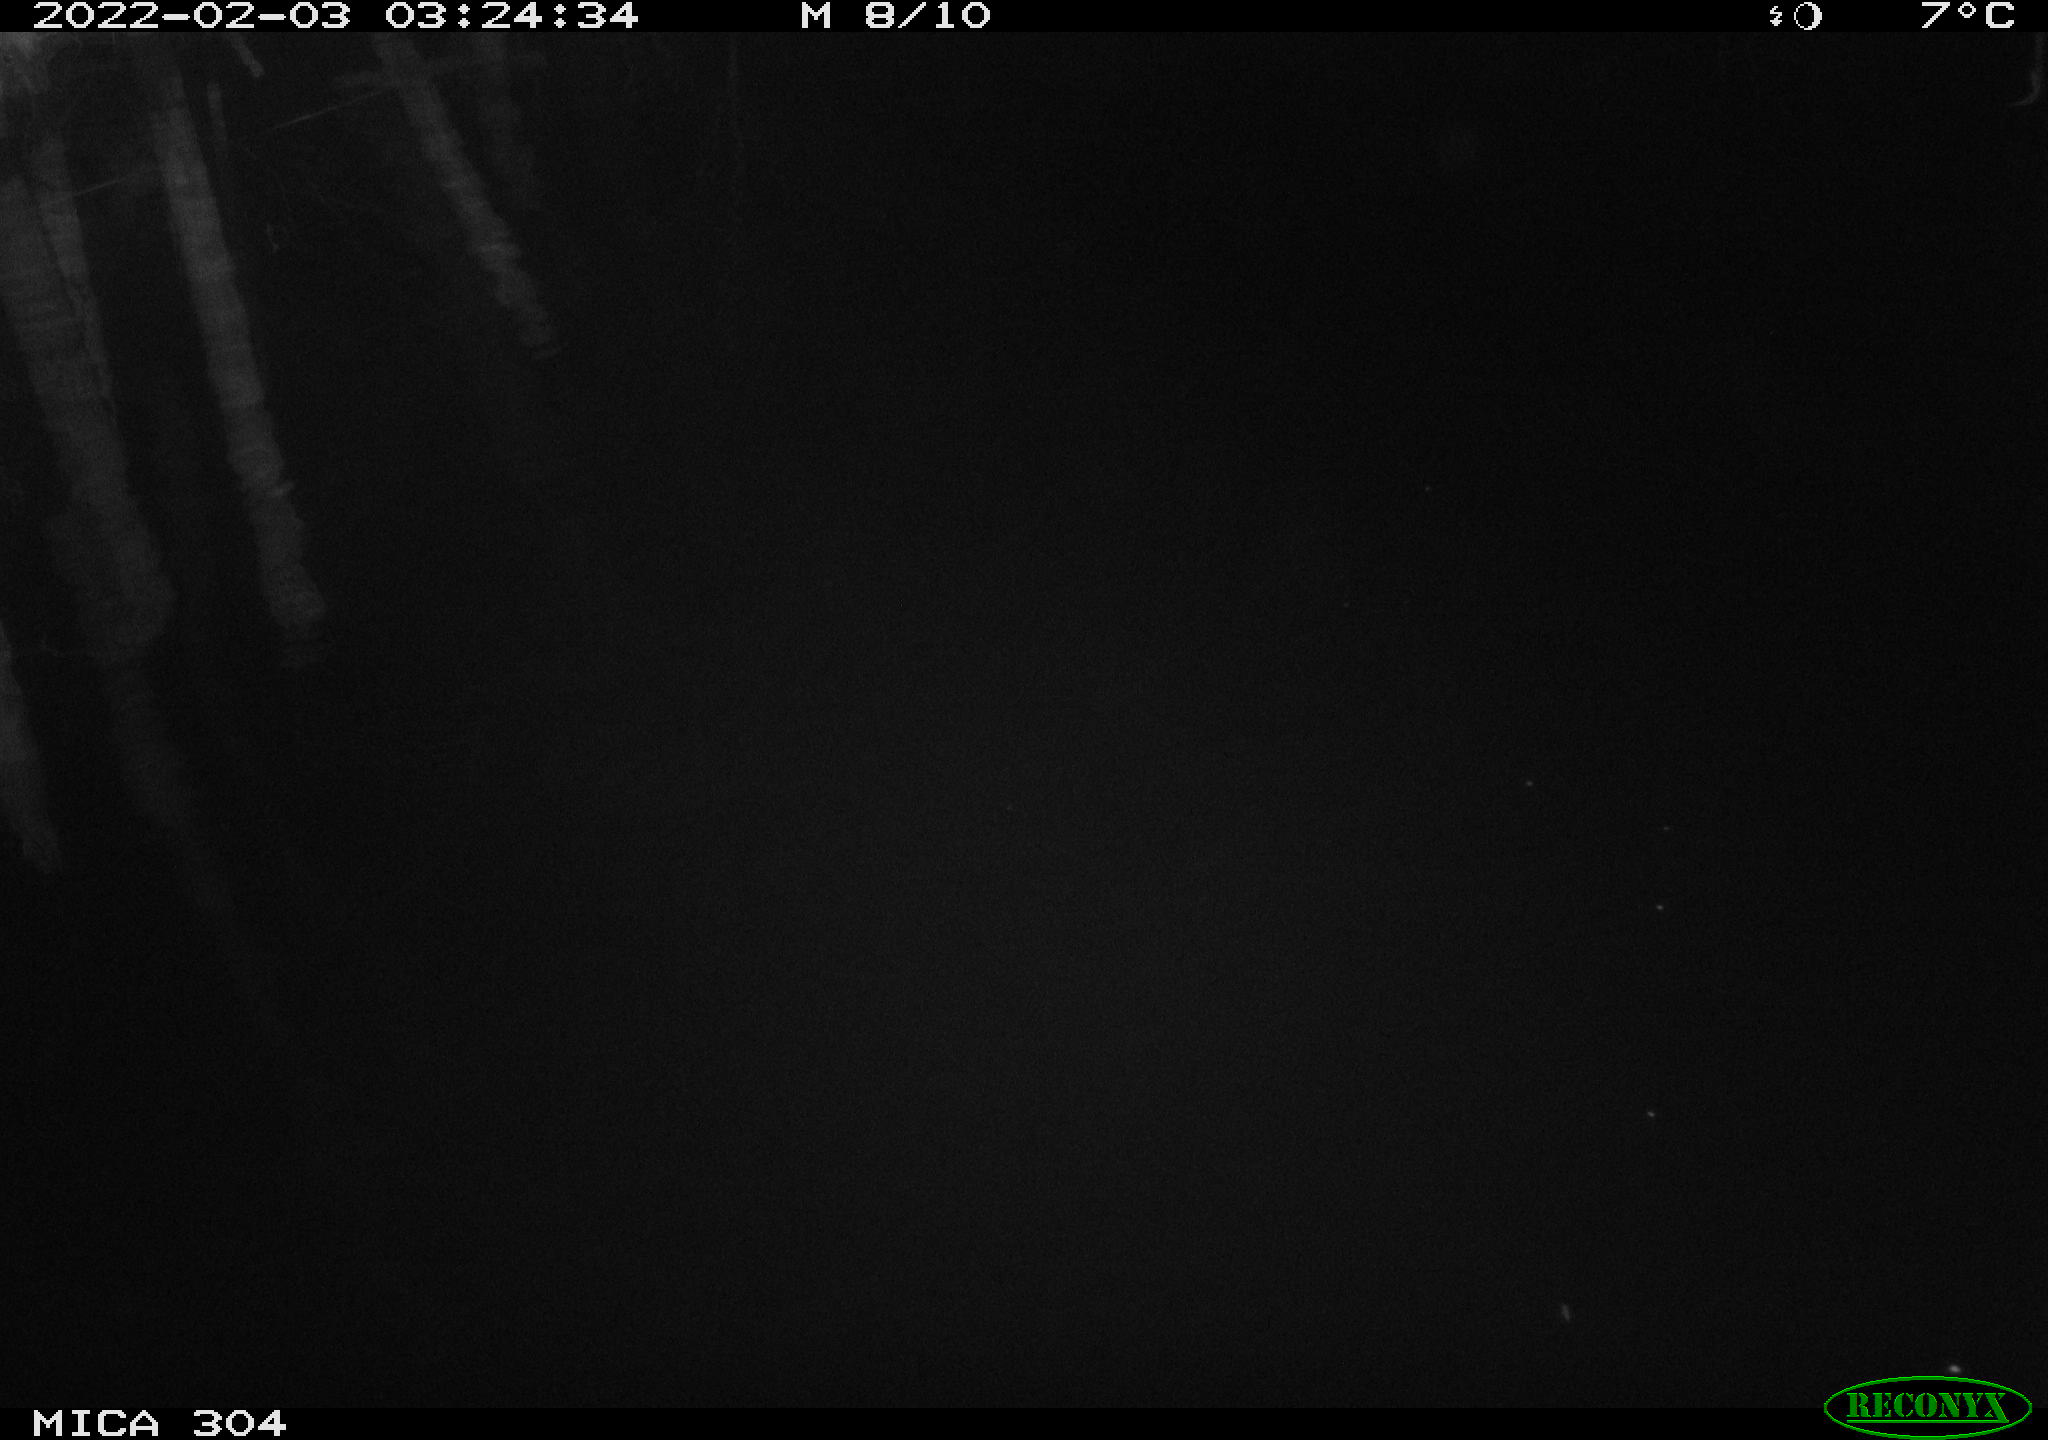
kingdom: Animalia
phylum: Chordata
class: Aves
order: Anseriformes
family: Anatidae
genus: Anas
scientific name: Anas
